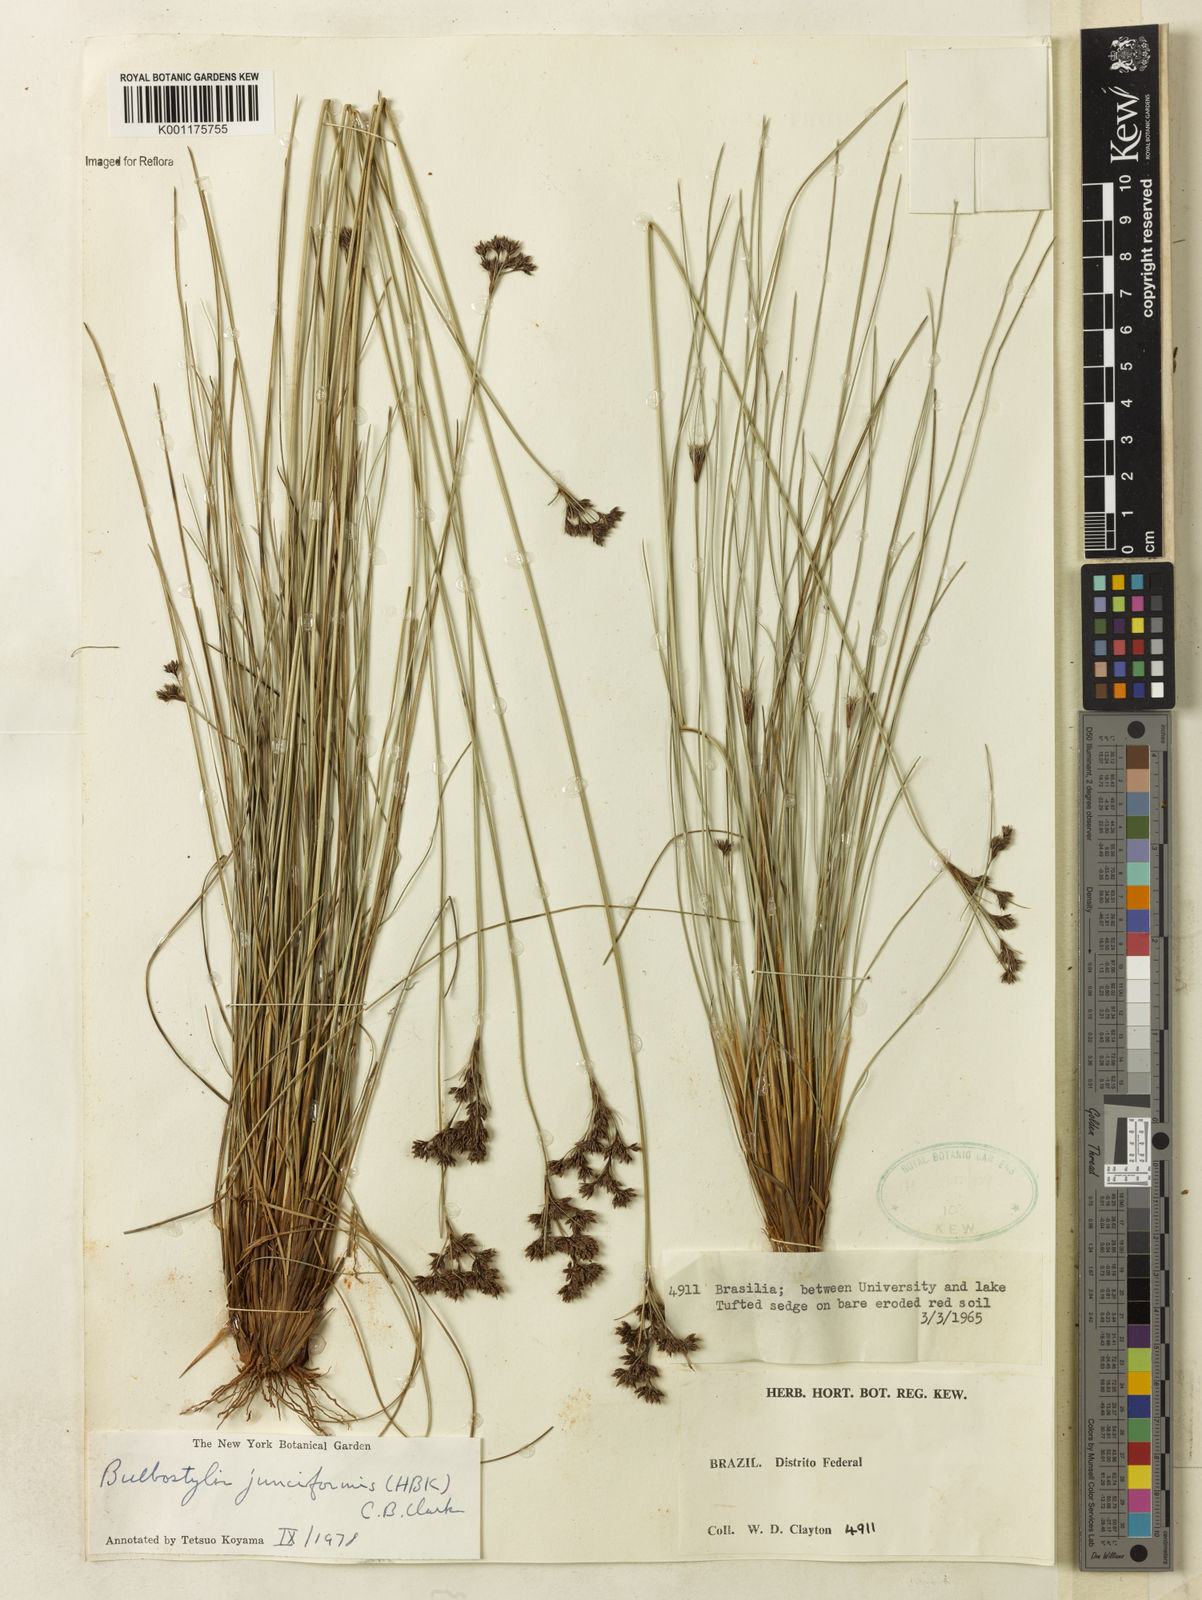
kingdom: Plantae
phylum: Tracheophyta
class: Liliopsida
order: Poales
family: Cyperaceae
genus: Bulbostylis
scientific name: Bulbostylis junciformis
